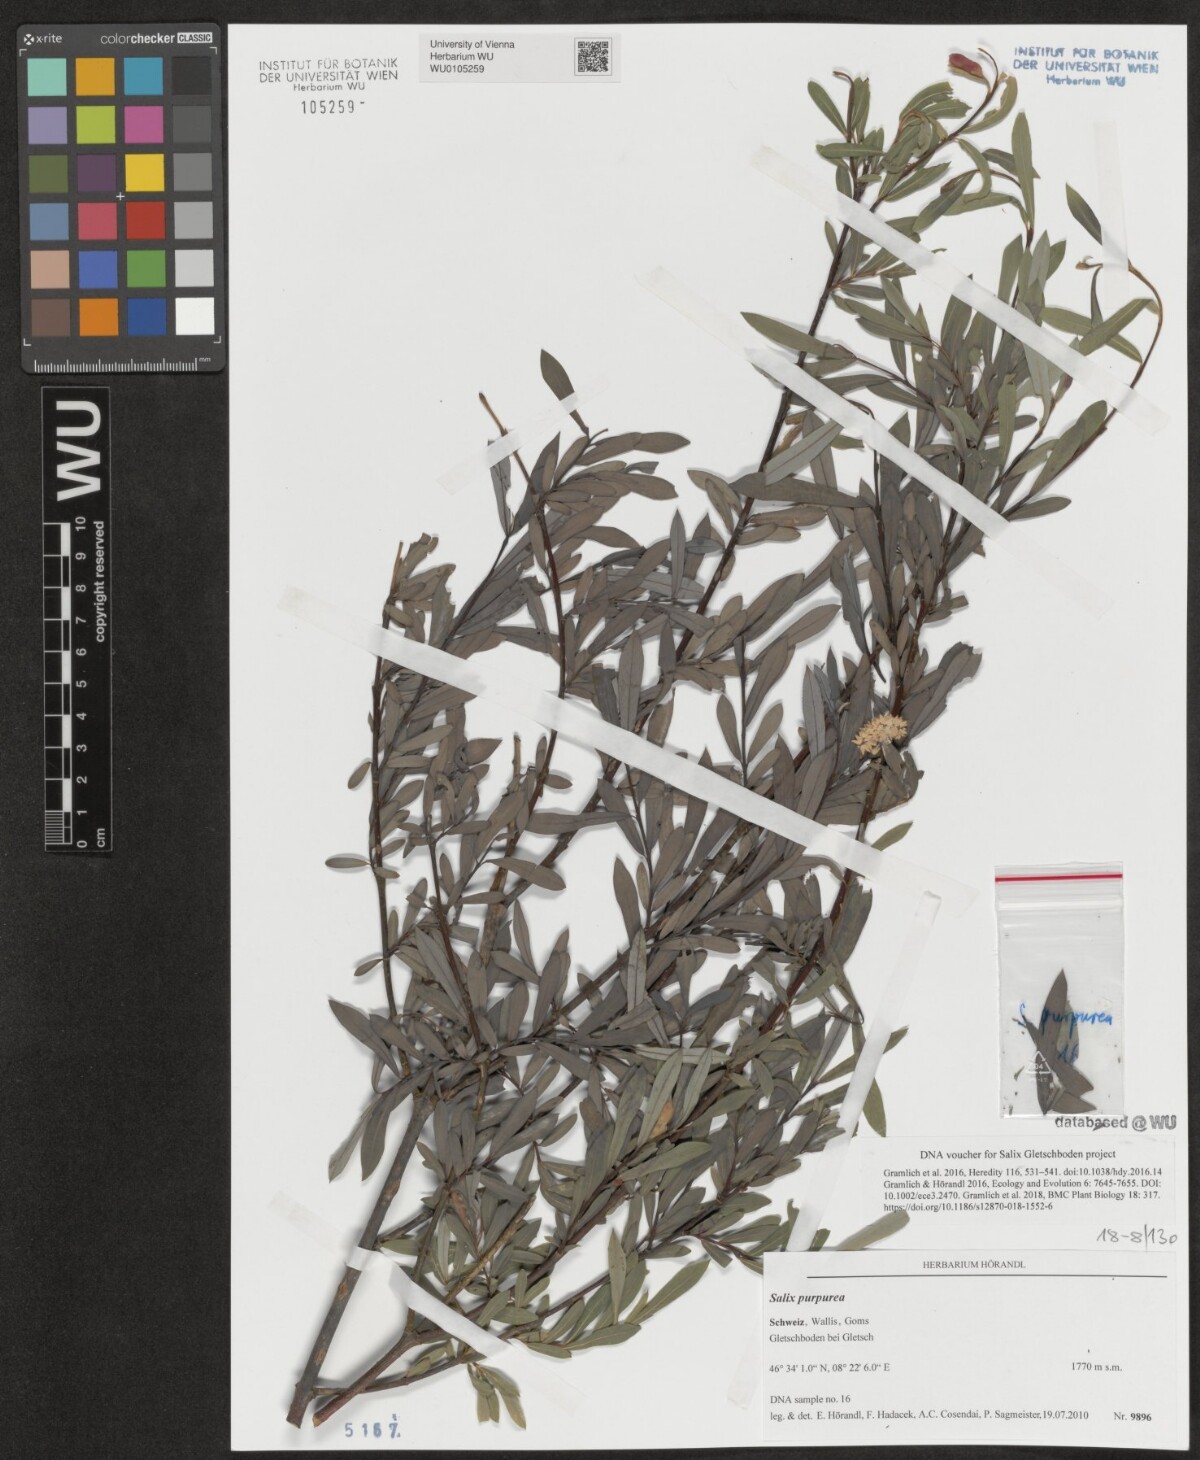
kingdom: Plantae
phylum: Tracheophyta
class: Magnoliopsida
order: Malpighiales
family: Salicaceae
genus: Salix
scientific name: Salix purpurea
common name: Purple willow
